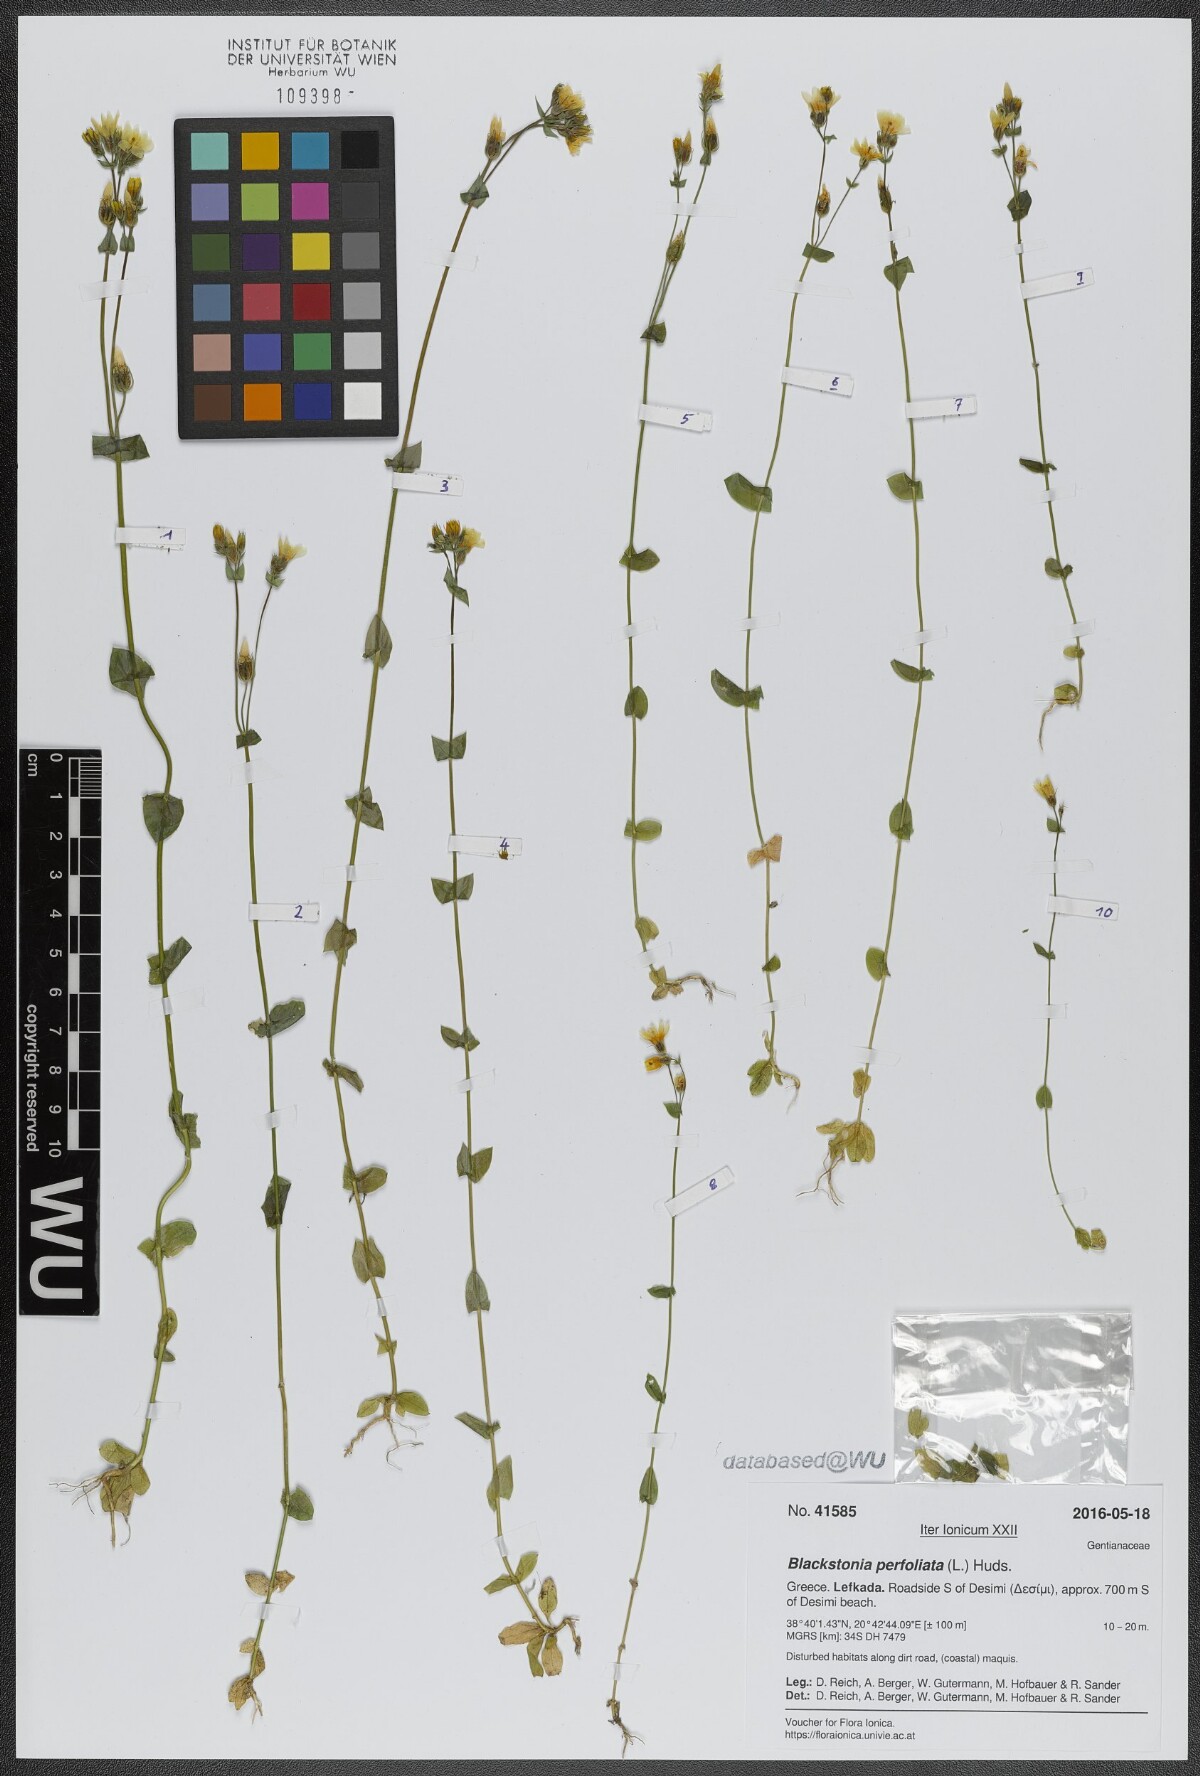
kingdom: Plantae
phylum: Tracheophyta
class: Magnoliopsida
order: Gentianales
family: Gentianaceae
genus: Blackstonia
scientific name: Blackstonia perfoliata
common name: Yellow-wort
